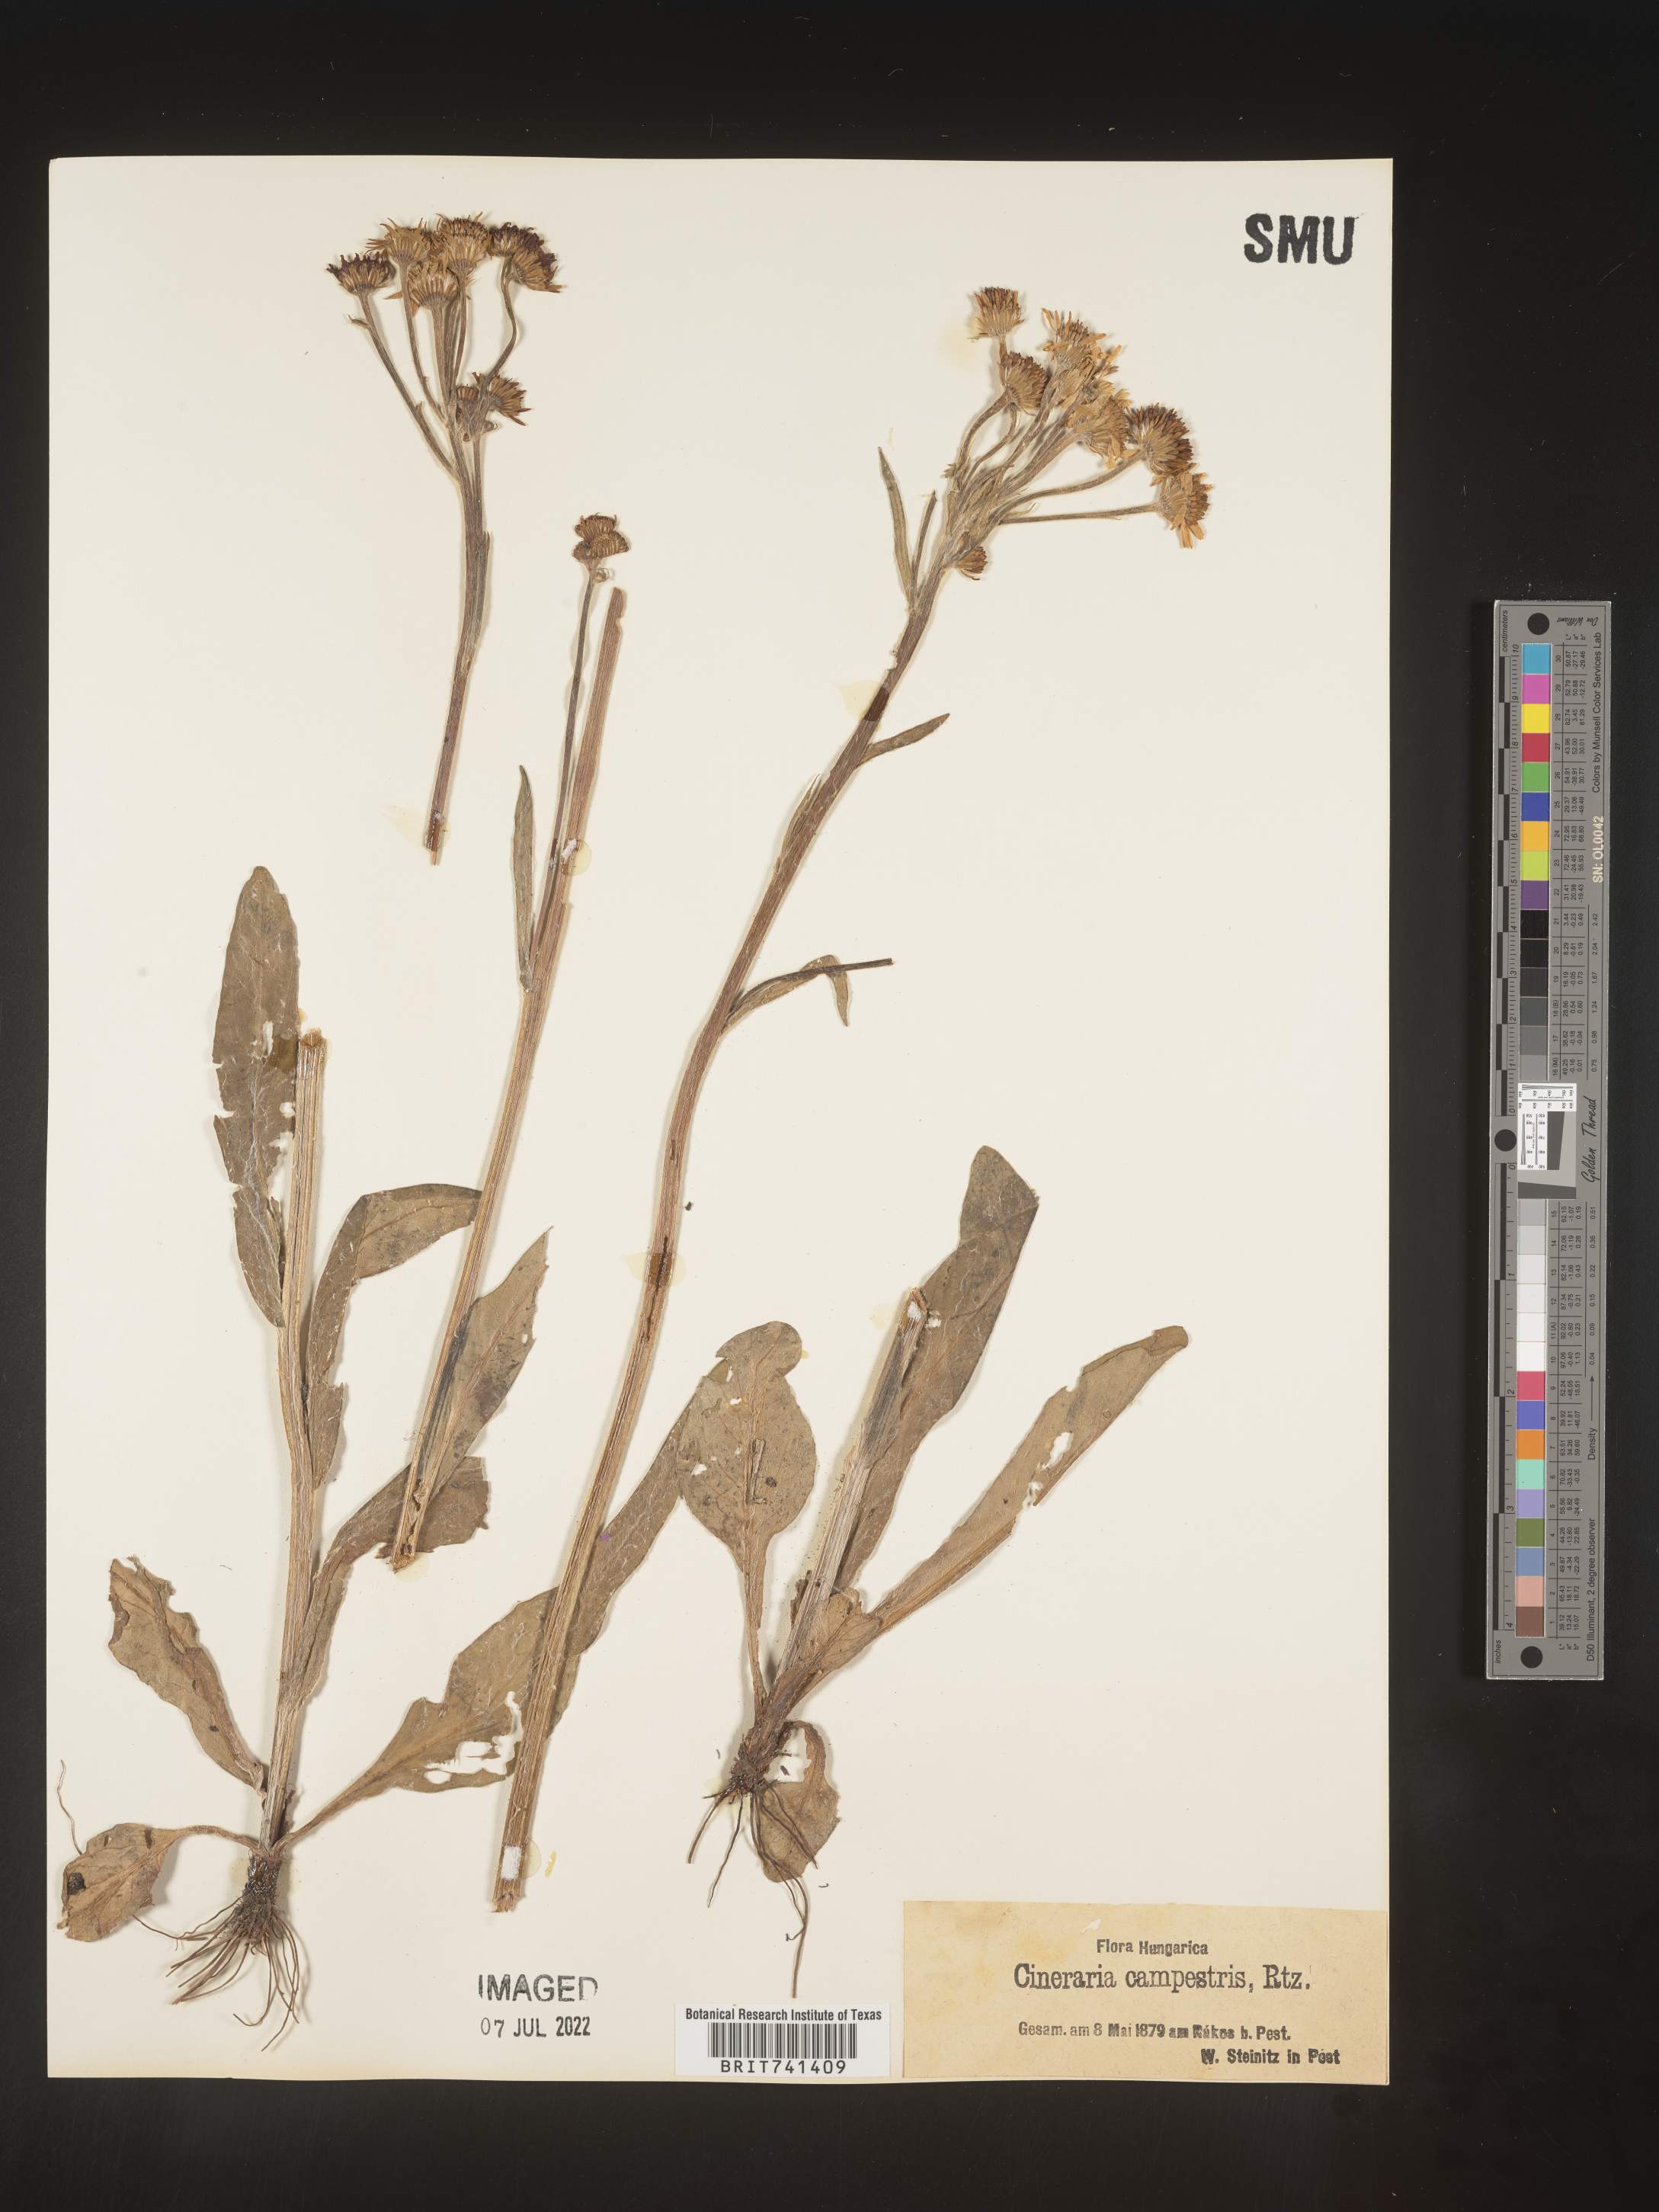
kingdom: Plantae
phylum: Tracheophyta
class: Magnoliopsida
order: Asterales
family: Asteraceae
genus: Senecio
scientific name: Senecio
